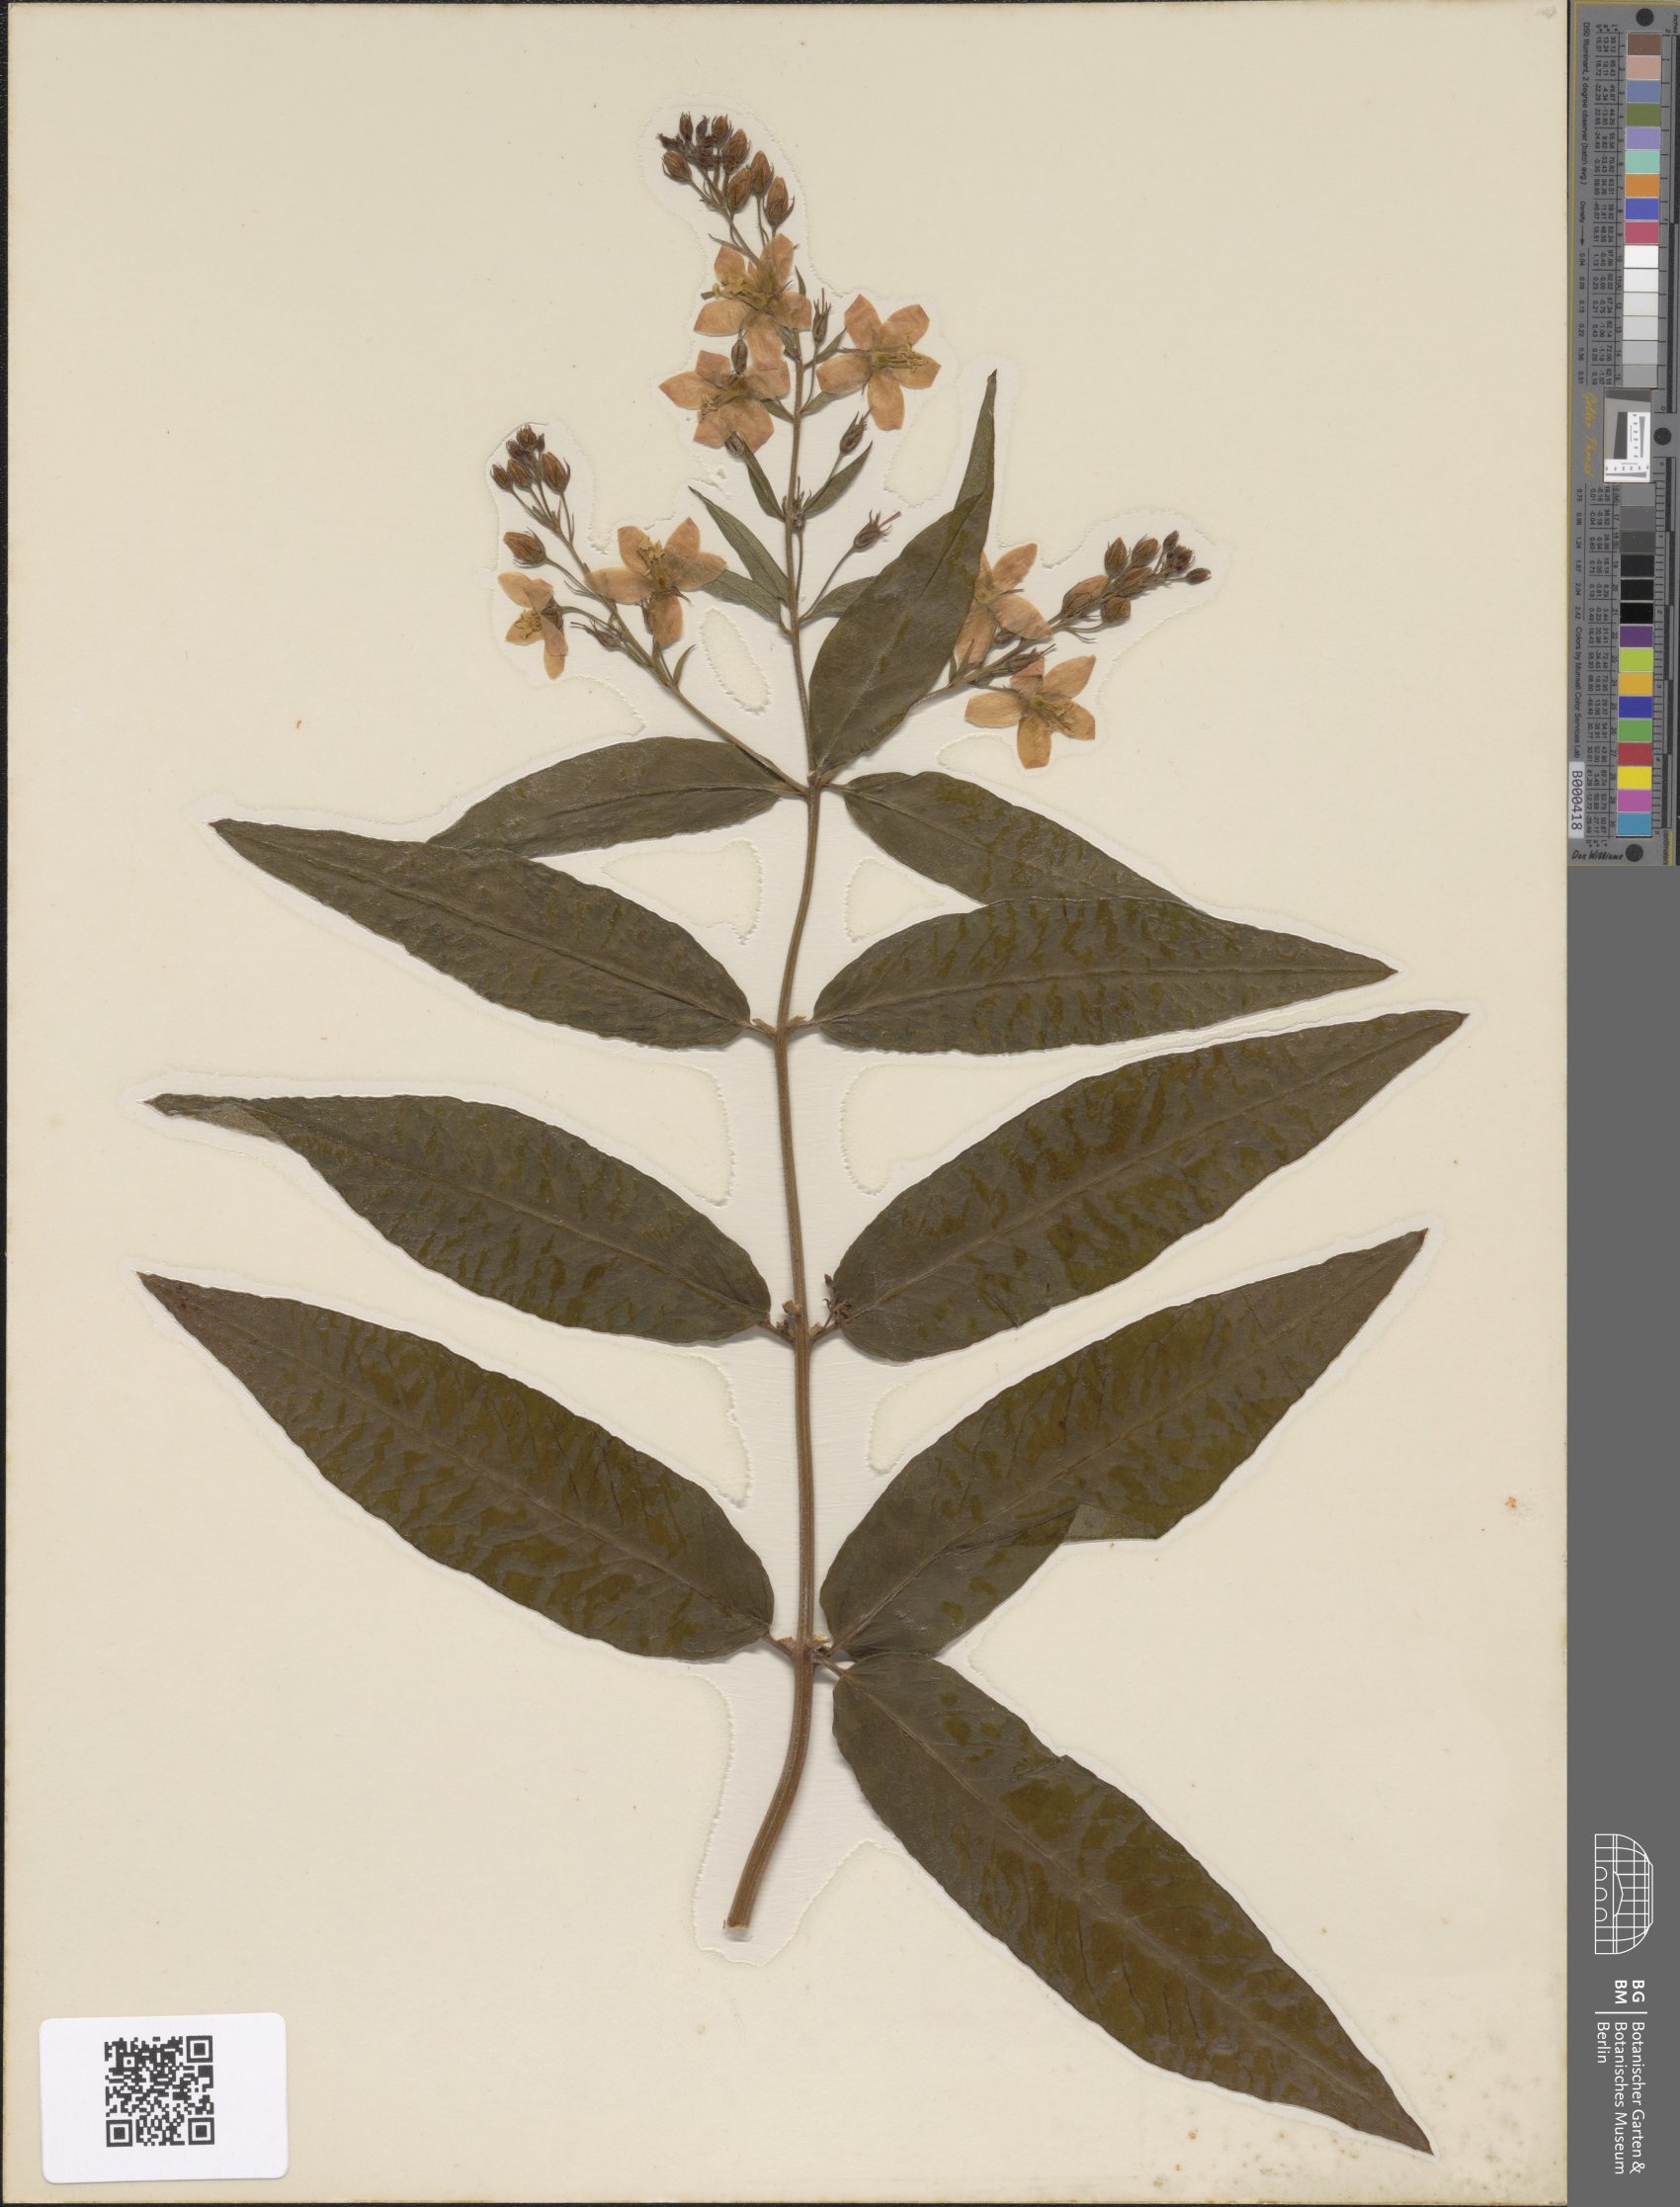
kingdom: Plantae
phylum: Tracheophyta
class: Magnoliopsida
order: Ericales
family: Primulaceae
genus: Lysimachia
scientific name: Lysimachia vulgaris
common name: Yellow loosestrife
